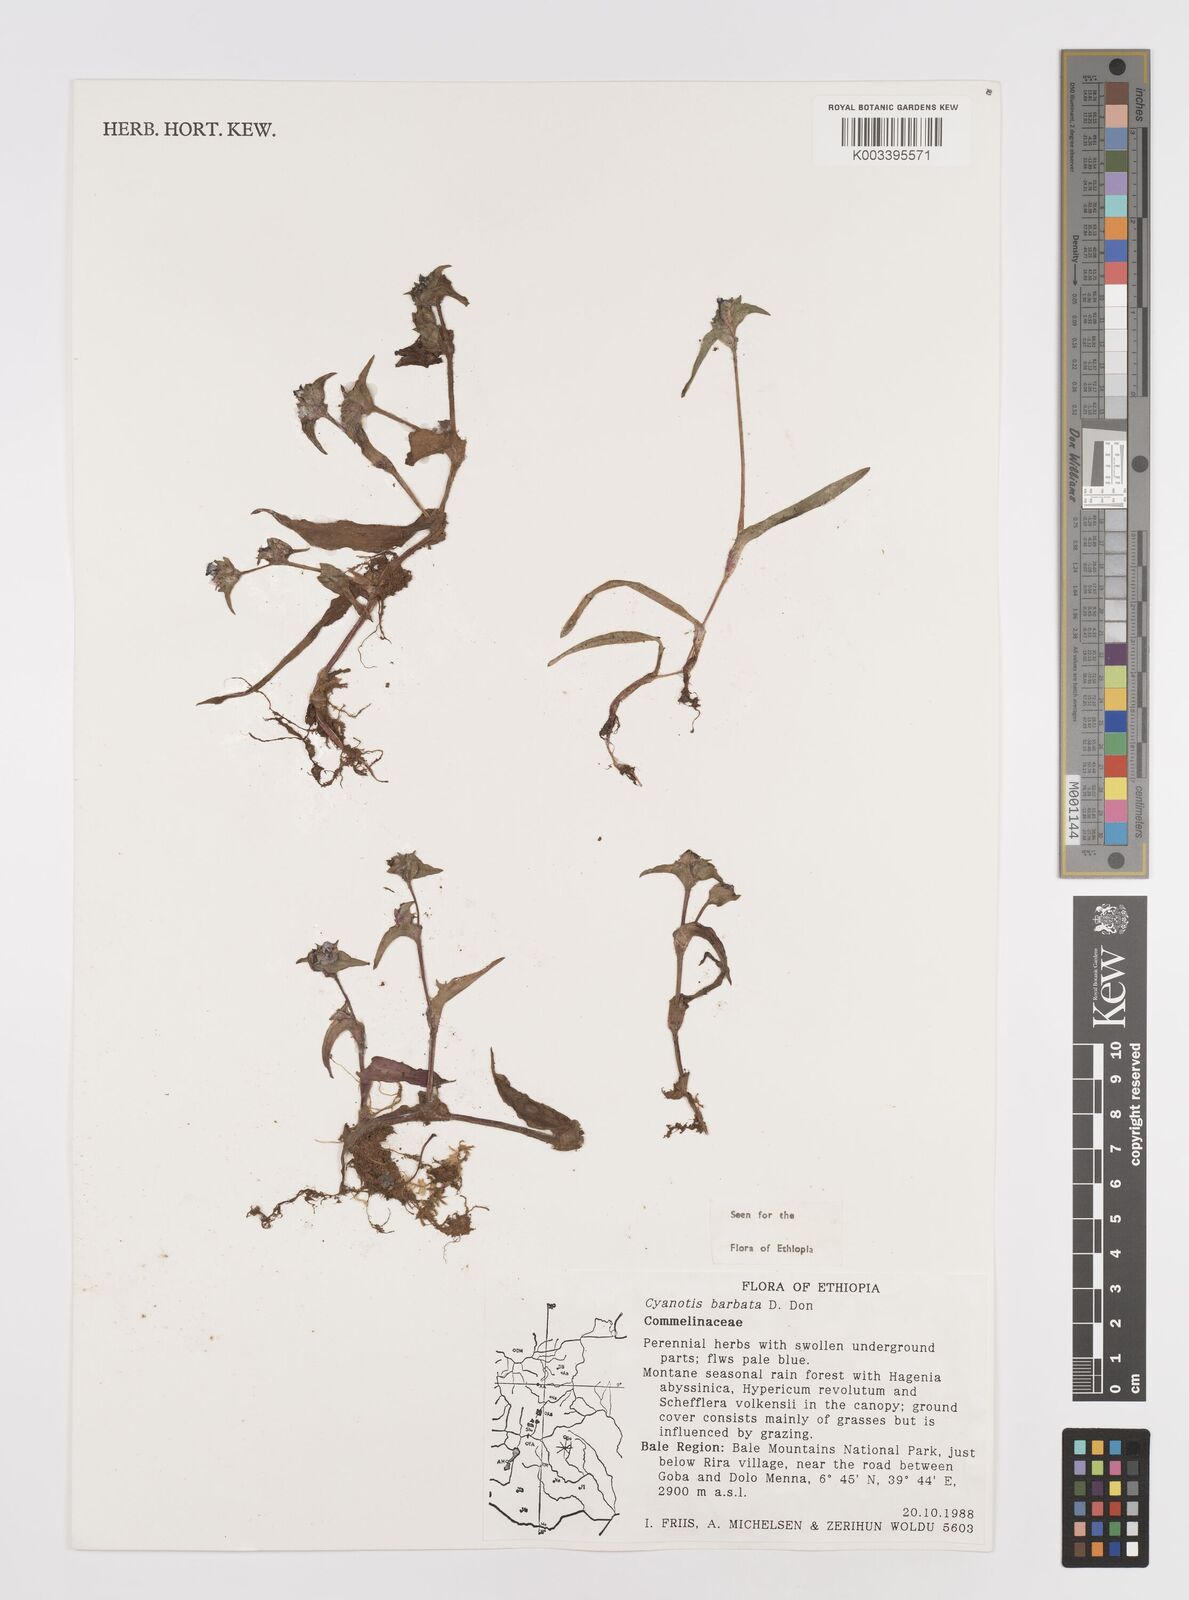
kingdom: Plantae
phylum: Tracheophyta
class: Liliopsida
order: Commelinales
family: Commelinaceae
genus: Cyanotis
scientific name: Cyanotis vaga
